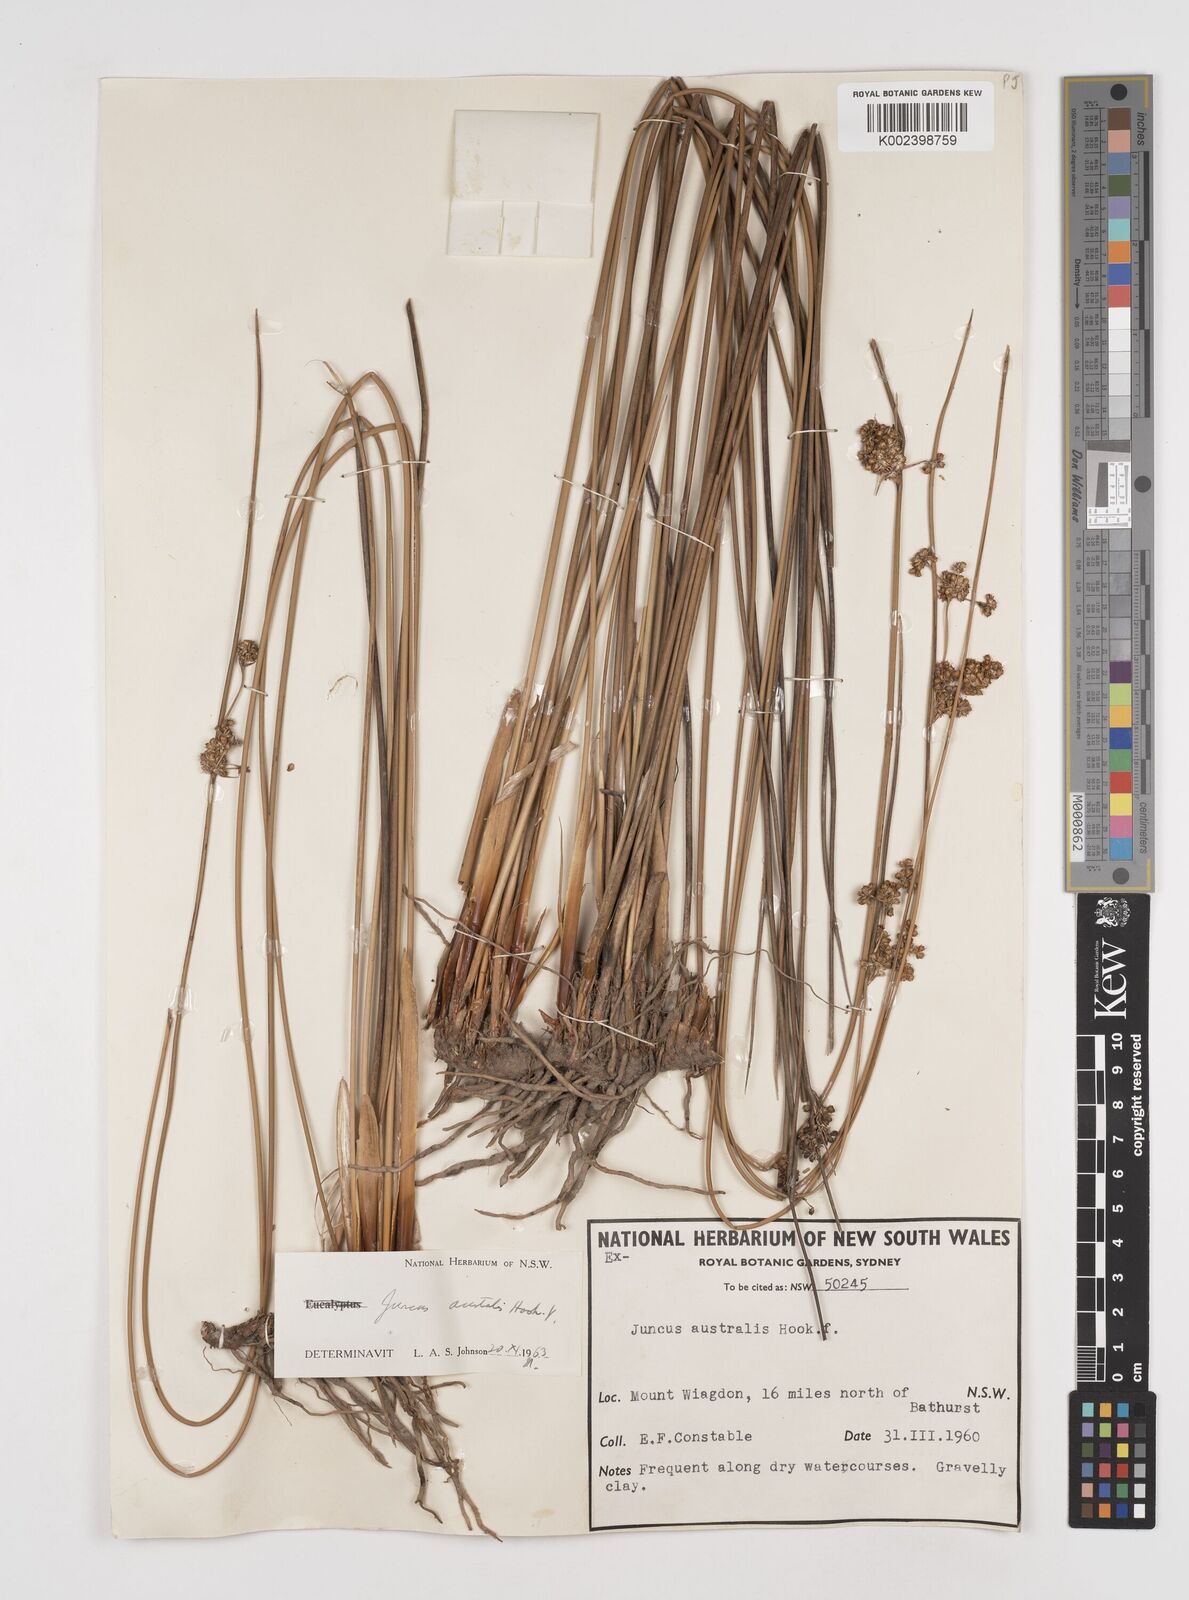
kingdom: Plantae
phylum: Tracheophyta
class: Liliopsida
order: Poales
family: Juncaceae
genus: Juncus
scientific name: Juncus australis
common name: Austral rush
